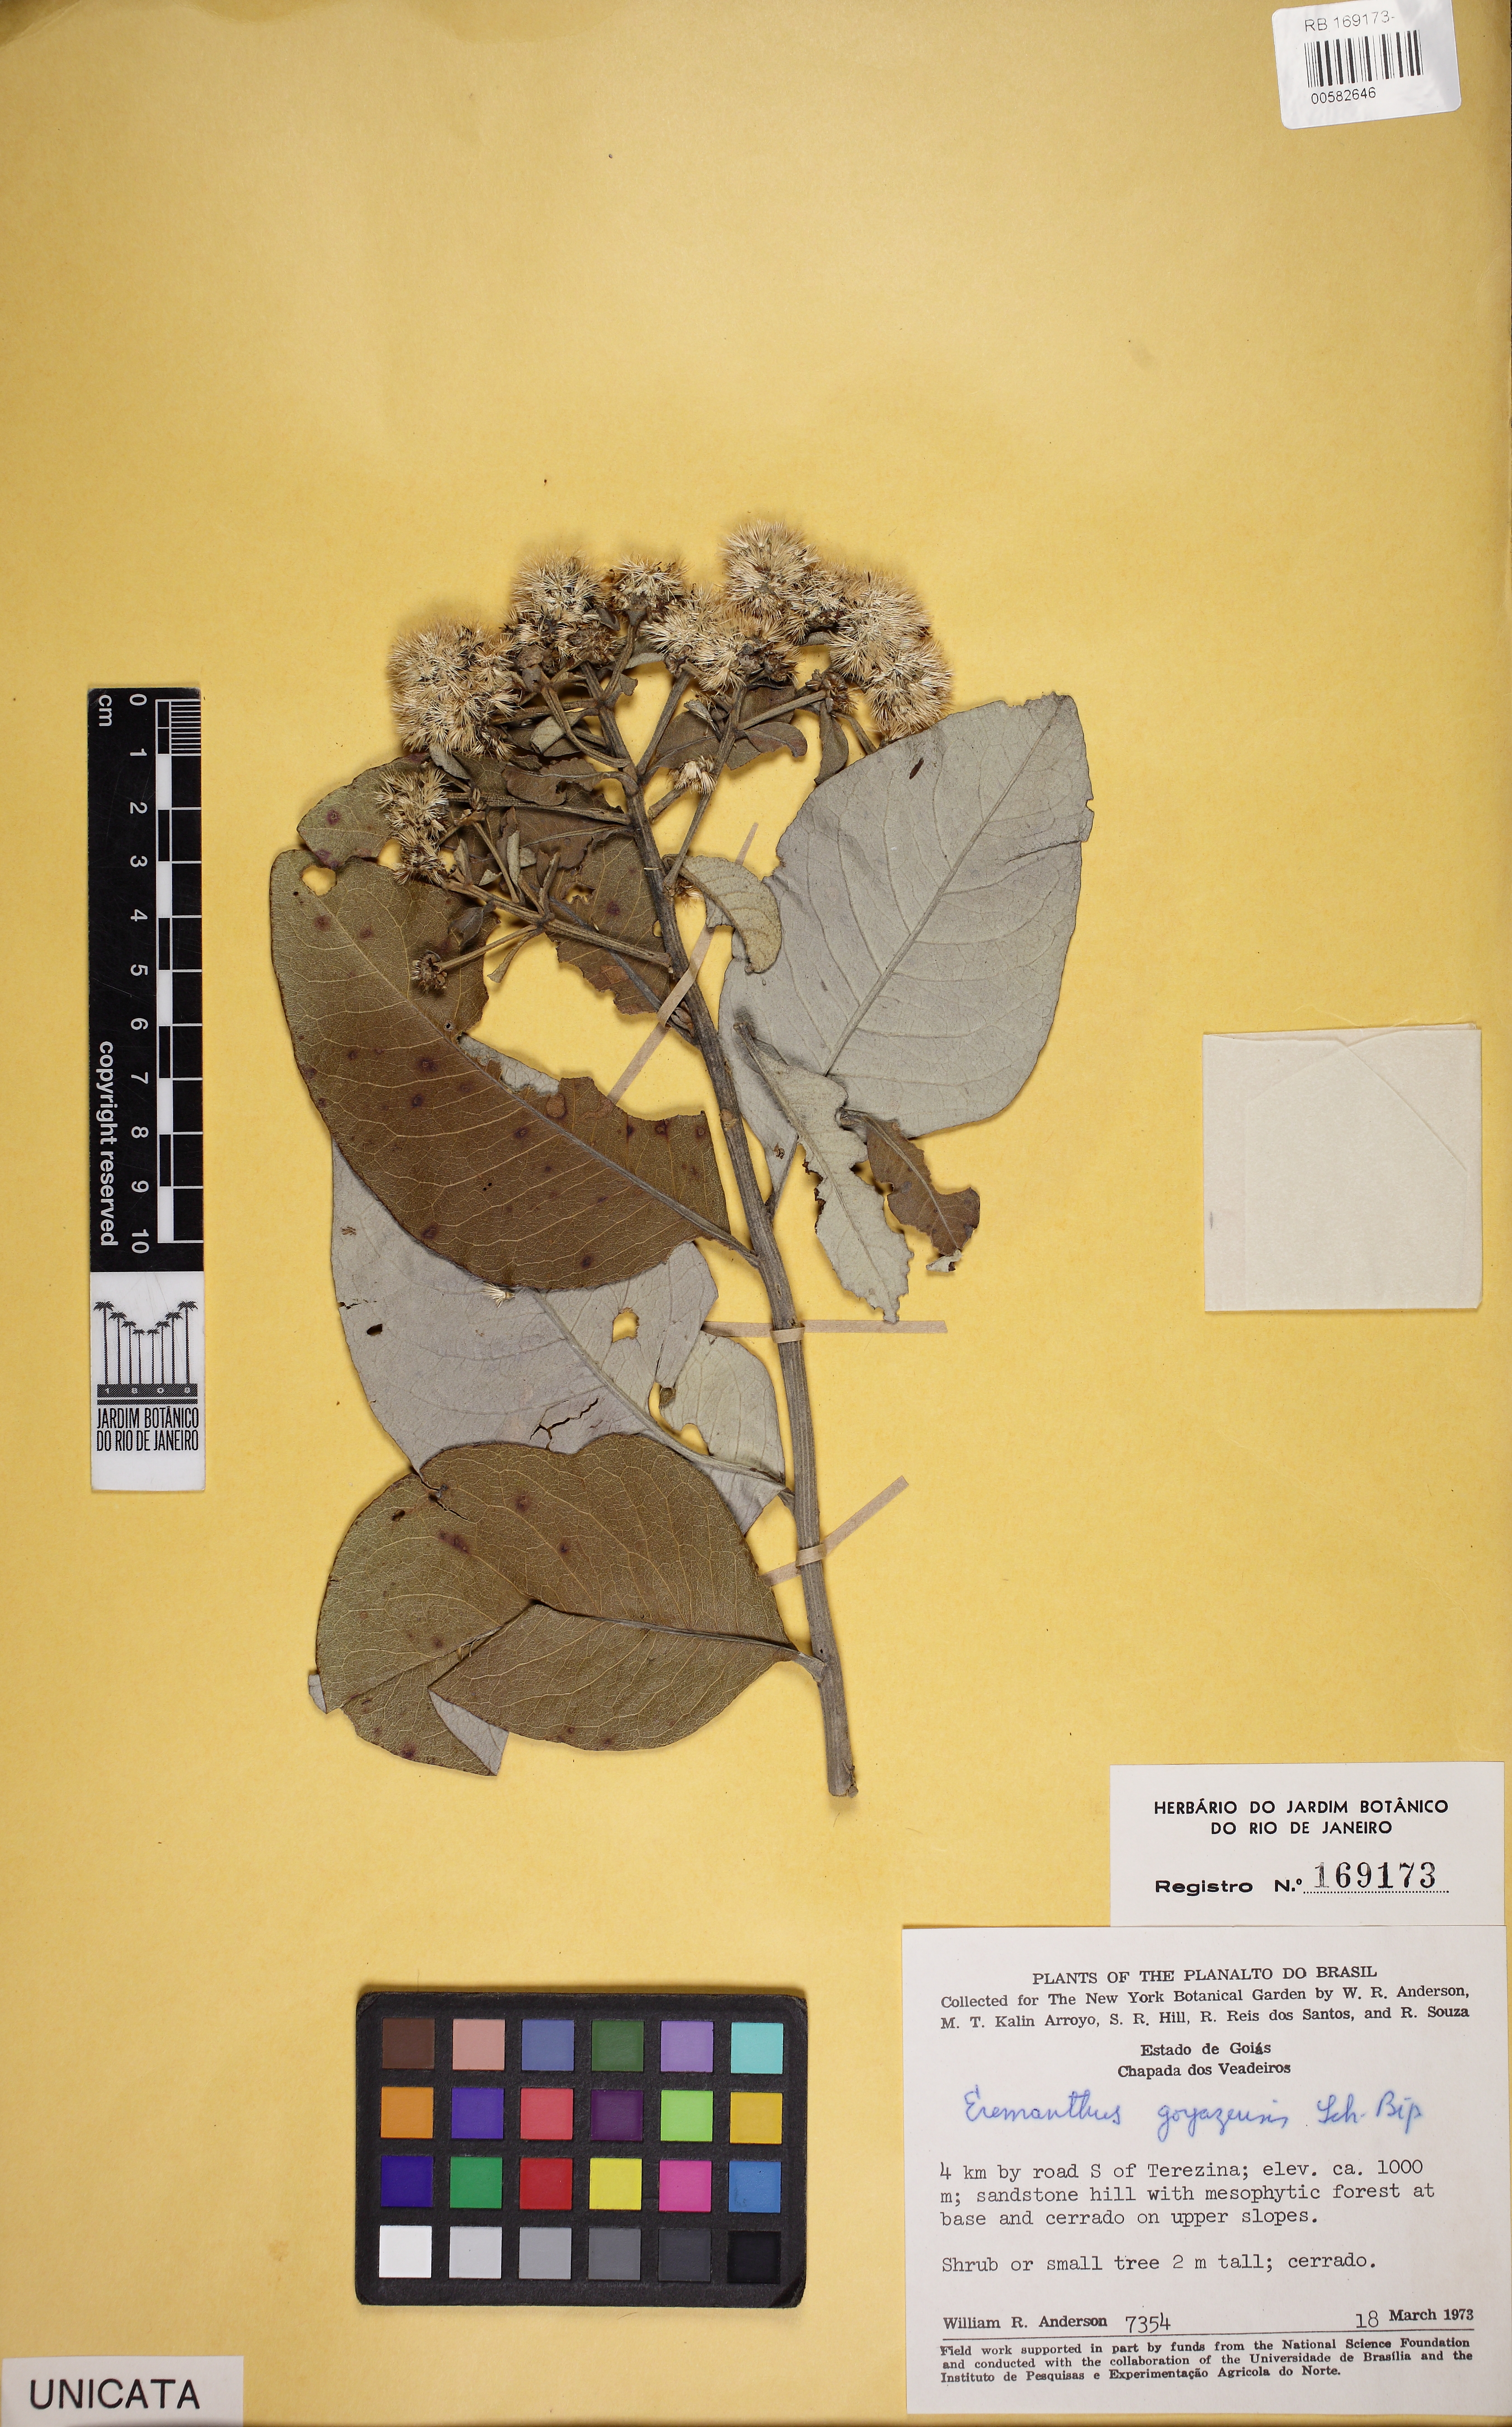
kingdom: Plantae
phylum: Tracheophyta
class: Magnoliopsida
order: Asterales
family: Asteraceae
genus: Eremanthus
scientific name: Eremanthus goyazensis
